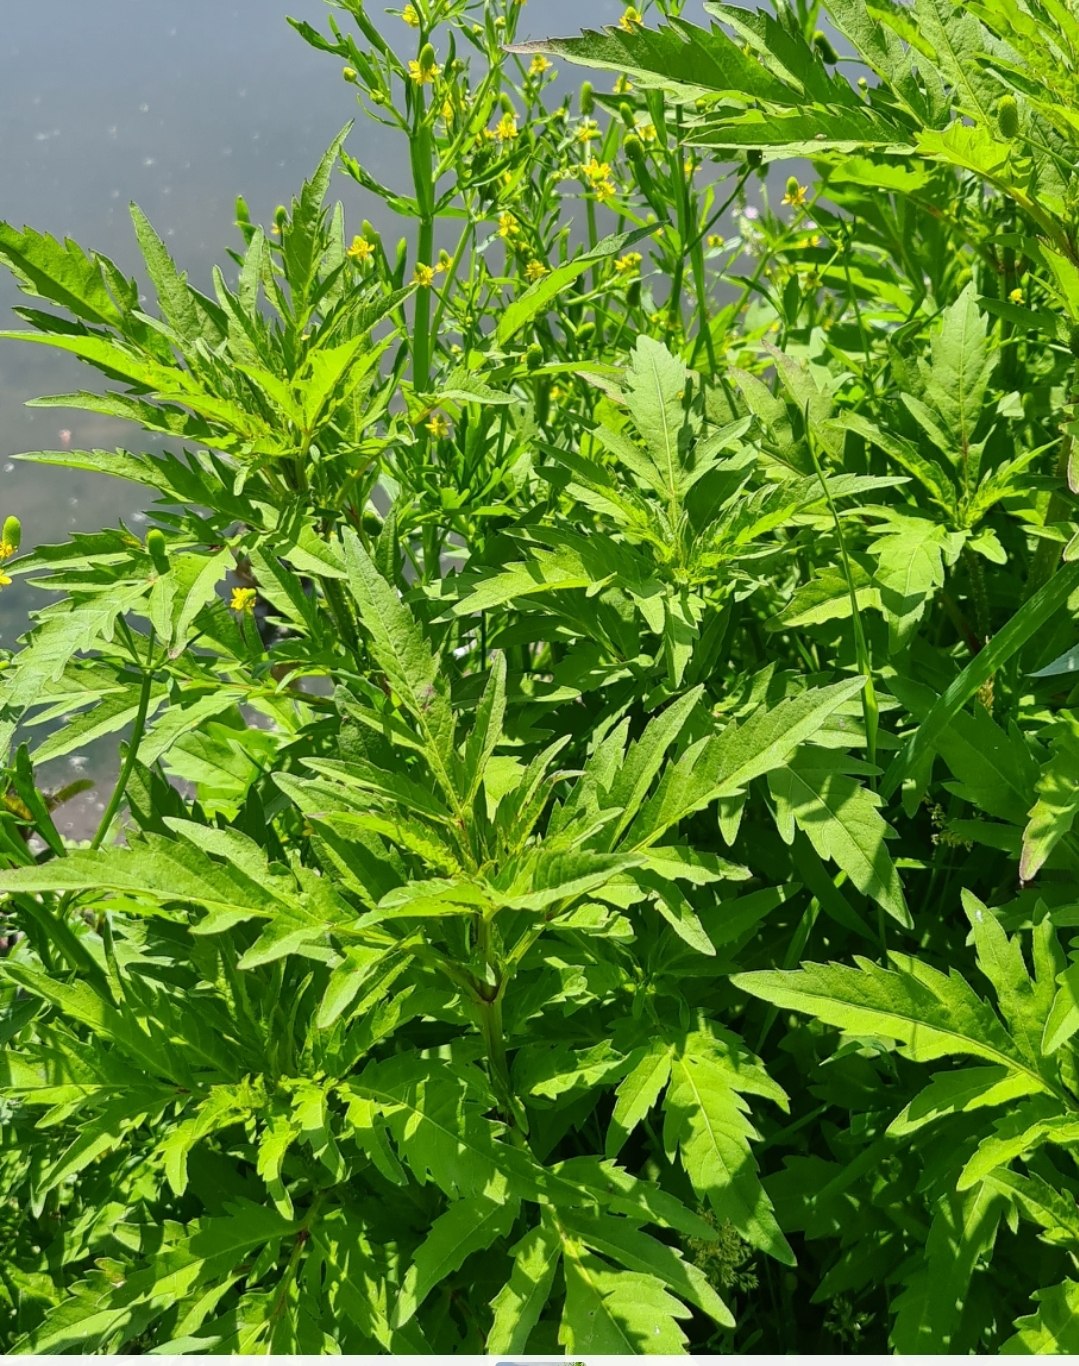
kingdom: Plantae
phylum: Tracheophyta
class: Magnoliopsida
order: Asterales
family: Asteraceae
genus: Bidens
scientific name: Bidens tripartita
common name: Fliget brøndsel
